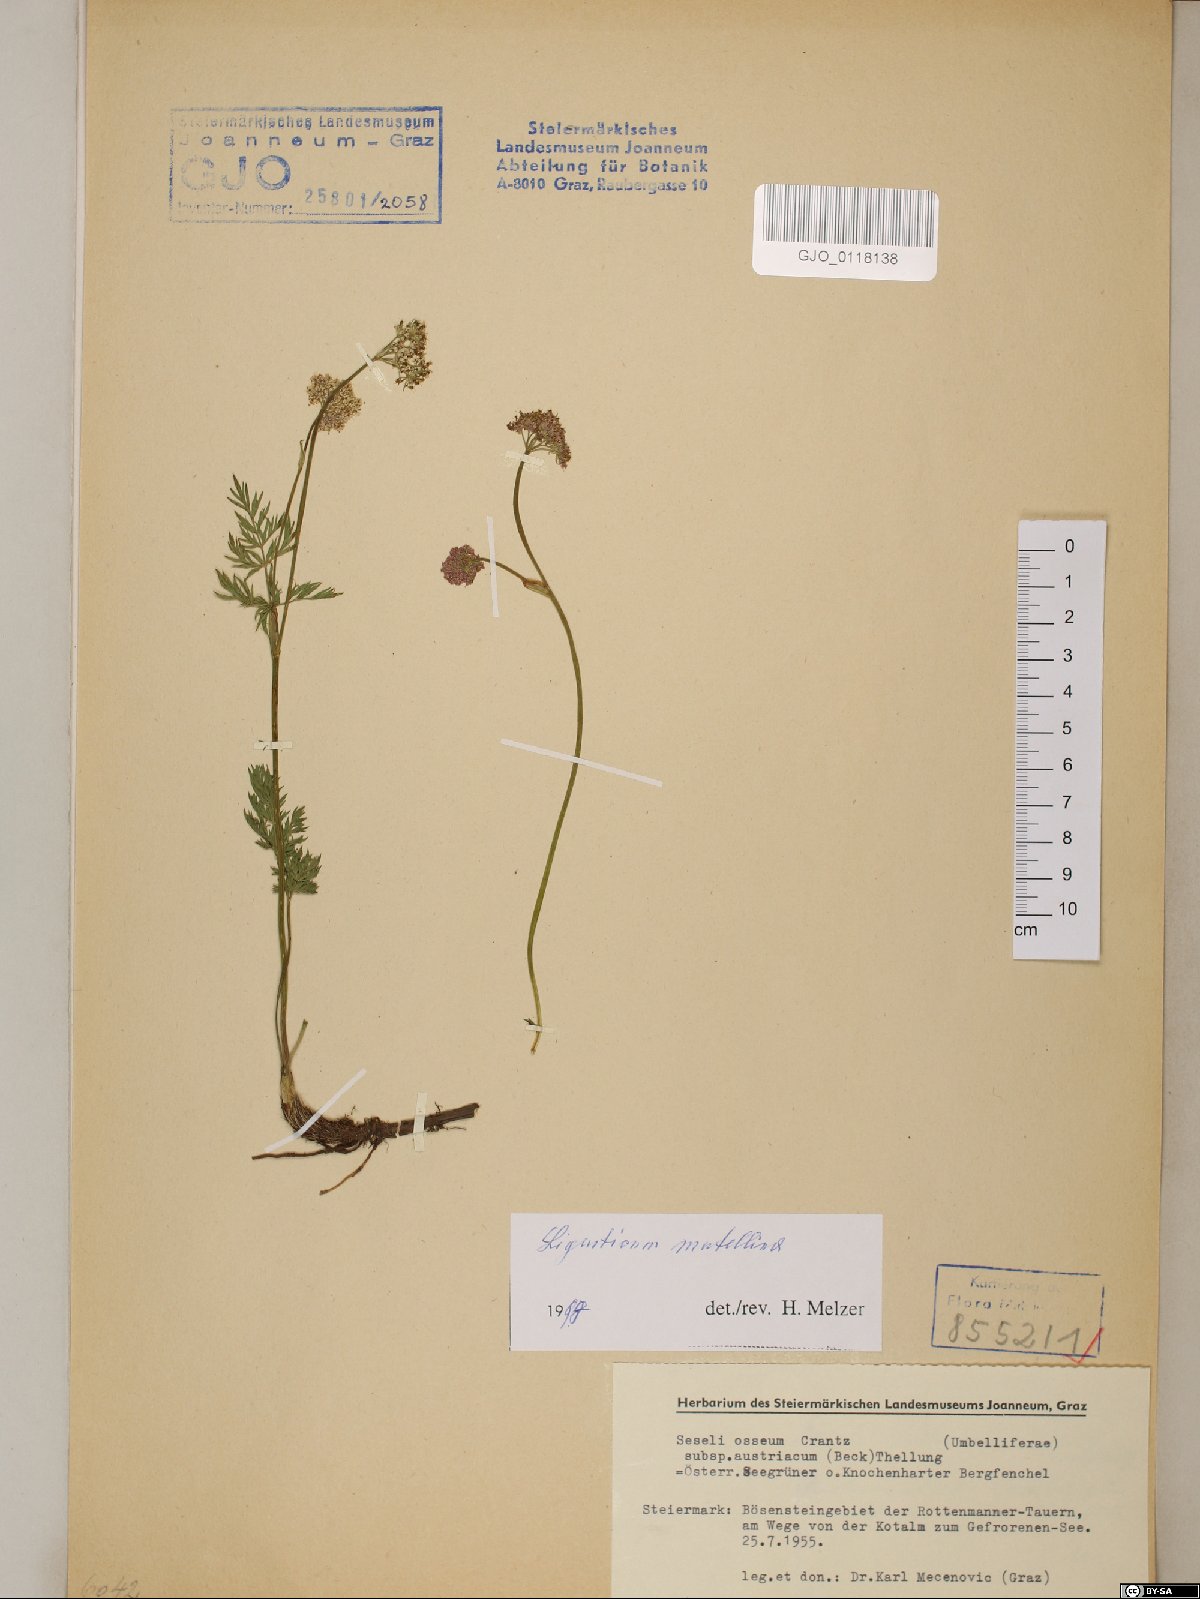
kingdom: Plantae
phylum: Tracheophyta
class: Magnoliopsida
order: Apiales
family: Apiaceae
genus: Mutellina
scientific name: Mutellina adonidifolia
